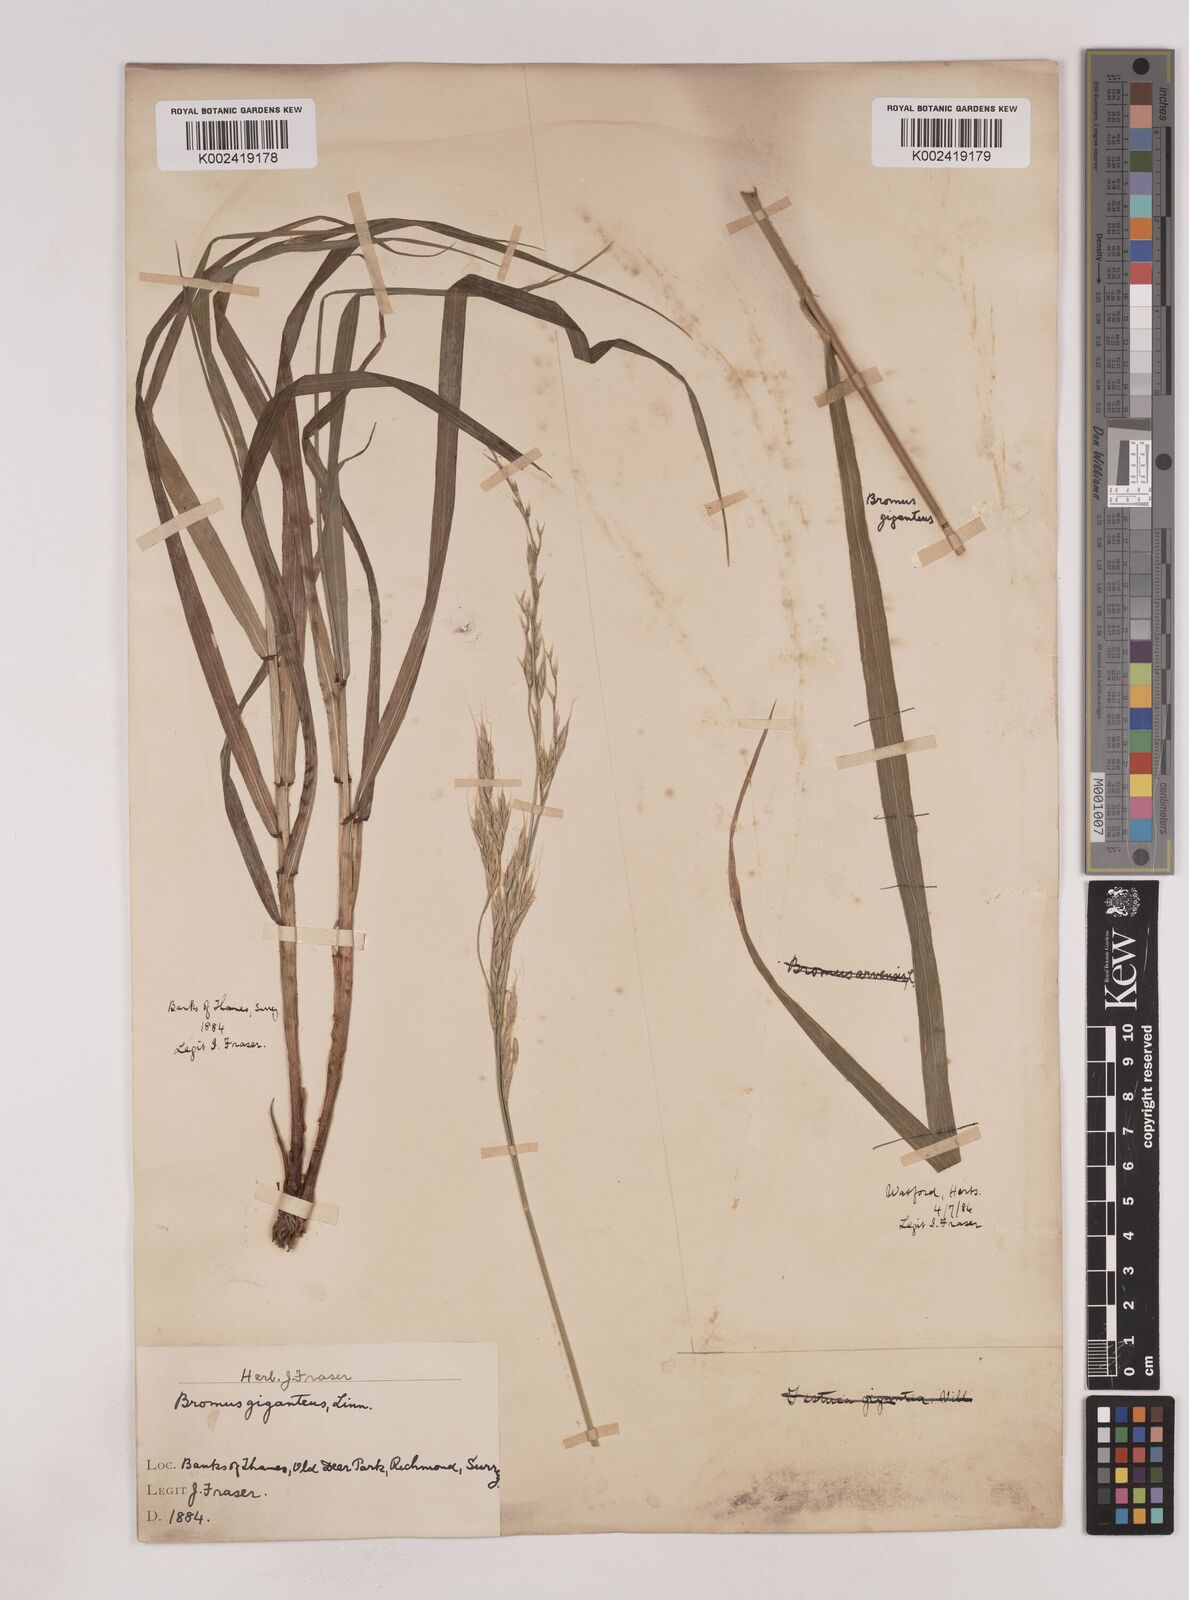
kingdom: Plantae
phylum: Tracheophyta
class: Liliopsida
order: Poales
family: Poaceae
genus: Lolium
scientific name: Lolium giganteum
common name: Giant fescue
